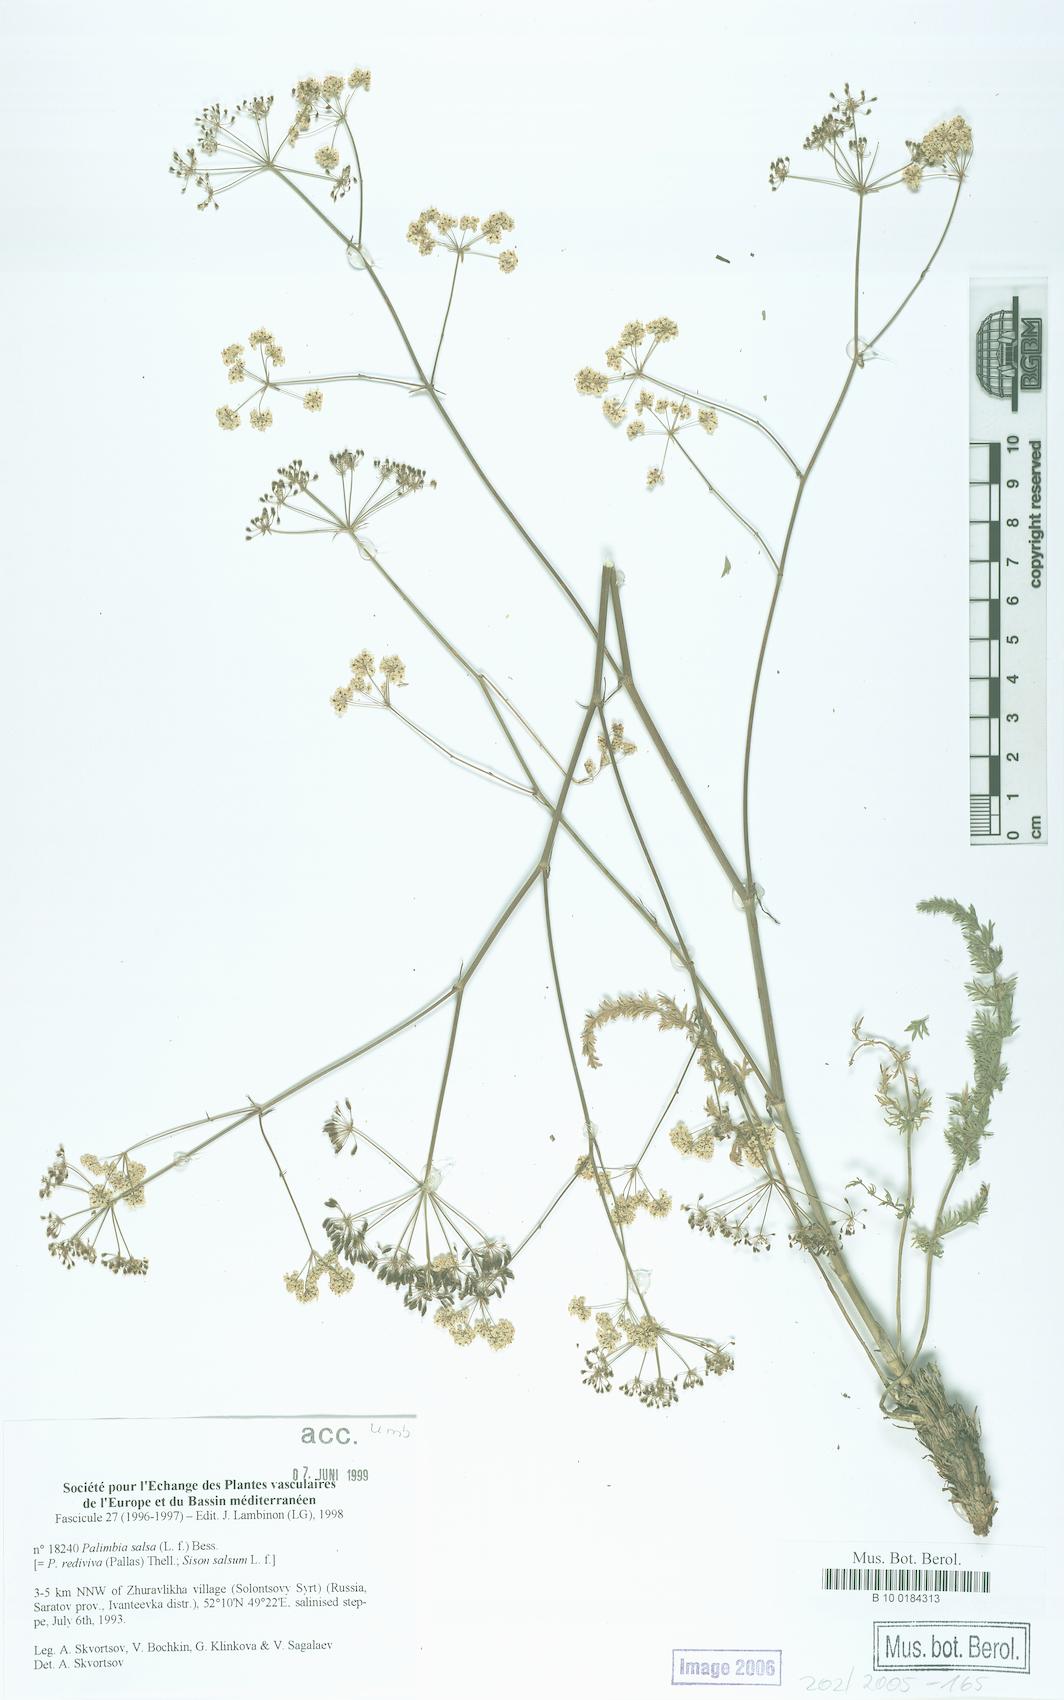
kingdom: Plantae
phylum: Tracheophyta
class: Magnoliopsida
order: Apiales
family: Apiaceae
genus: Palimbia
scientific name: Palimbia rediviva
